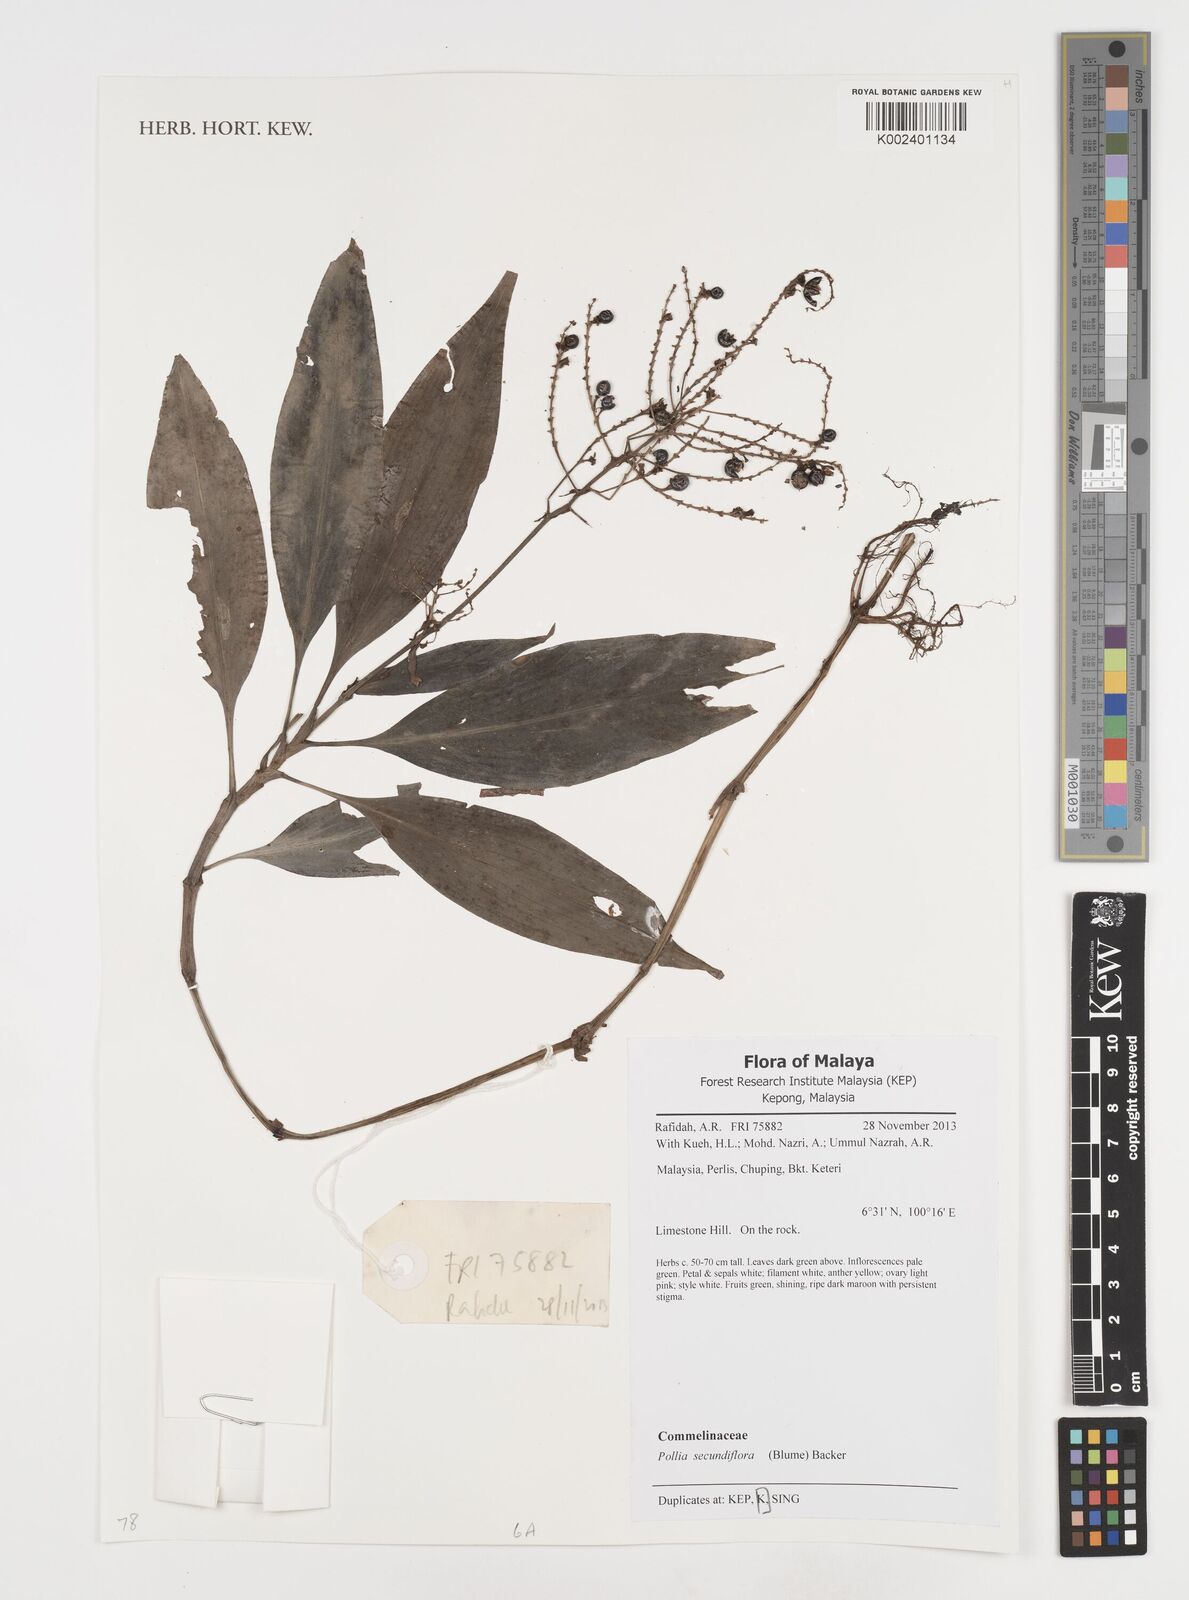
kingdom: Plantae
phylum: Tracheophyta
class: Liliopsida
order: Commelinales
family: Commelinaceae
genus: Pollia
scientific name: Pollia secundiflora
